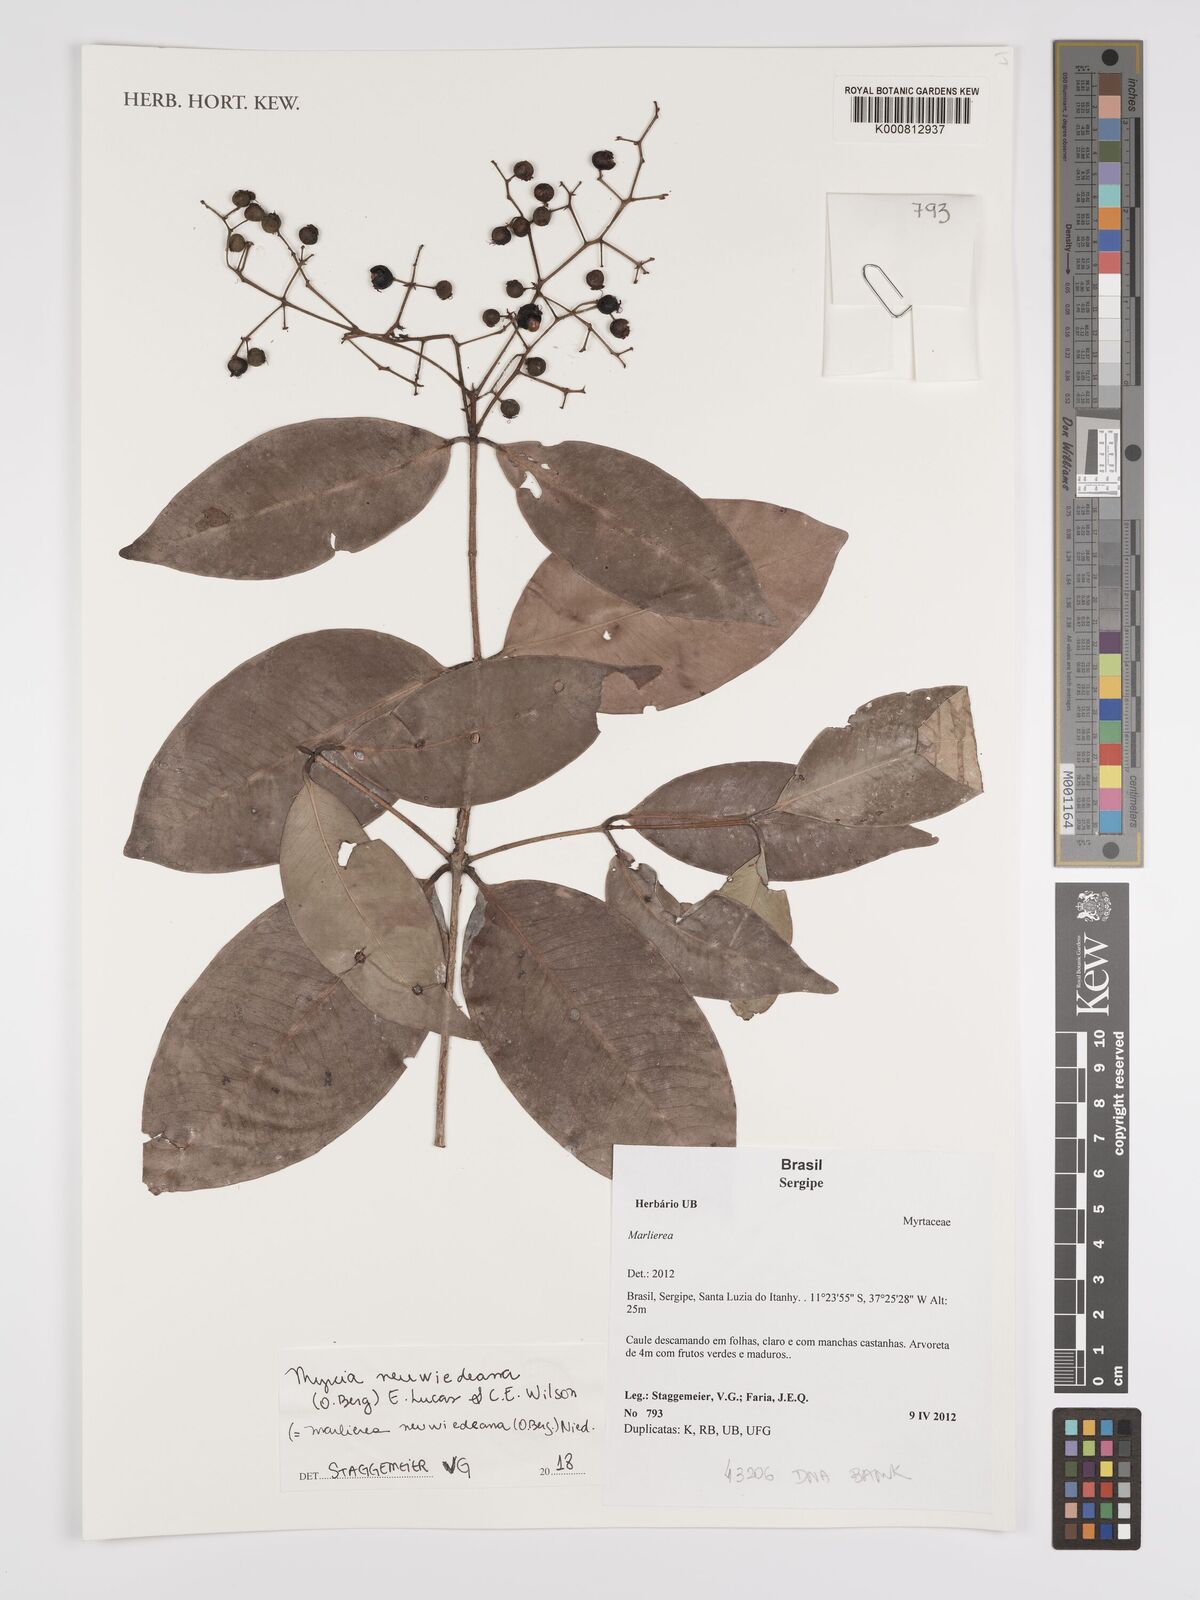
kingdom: Plantae
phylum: Tracheophyta
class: Magnoliopsida
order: Myrtales
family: Myrtaceae
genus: Myrcia
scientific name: Myrcia neuwiedeana
